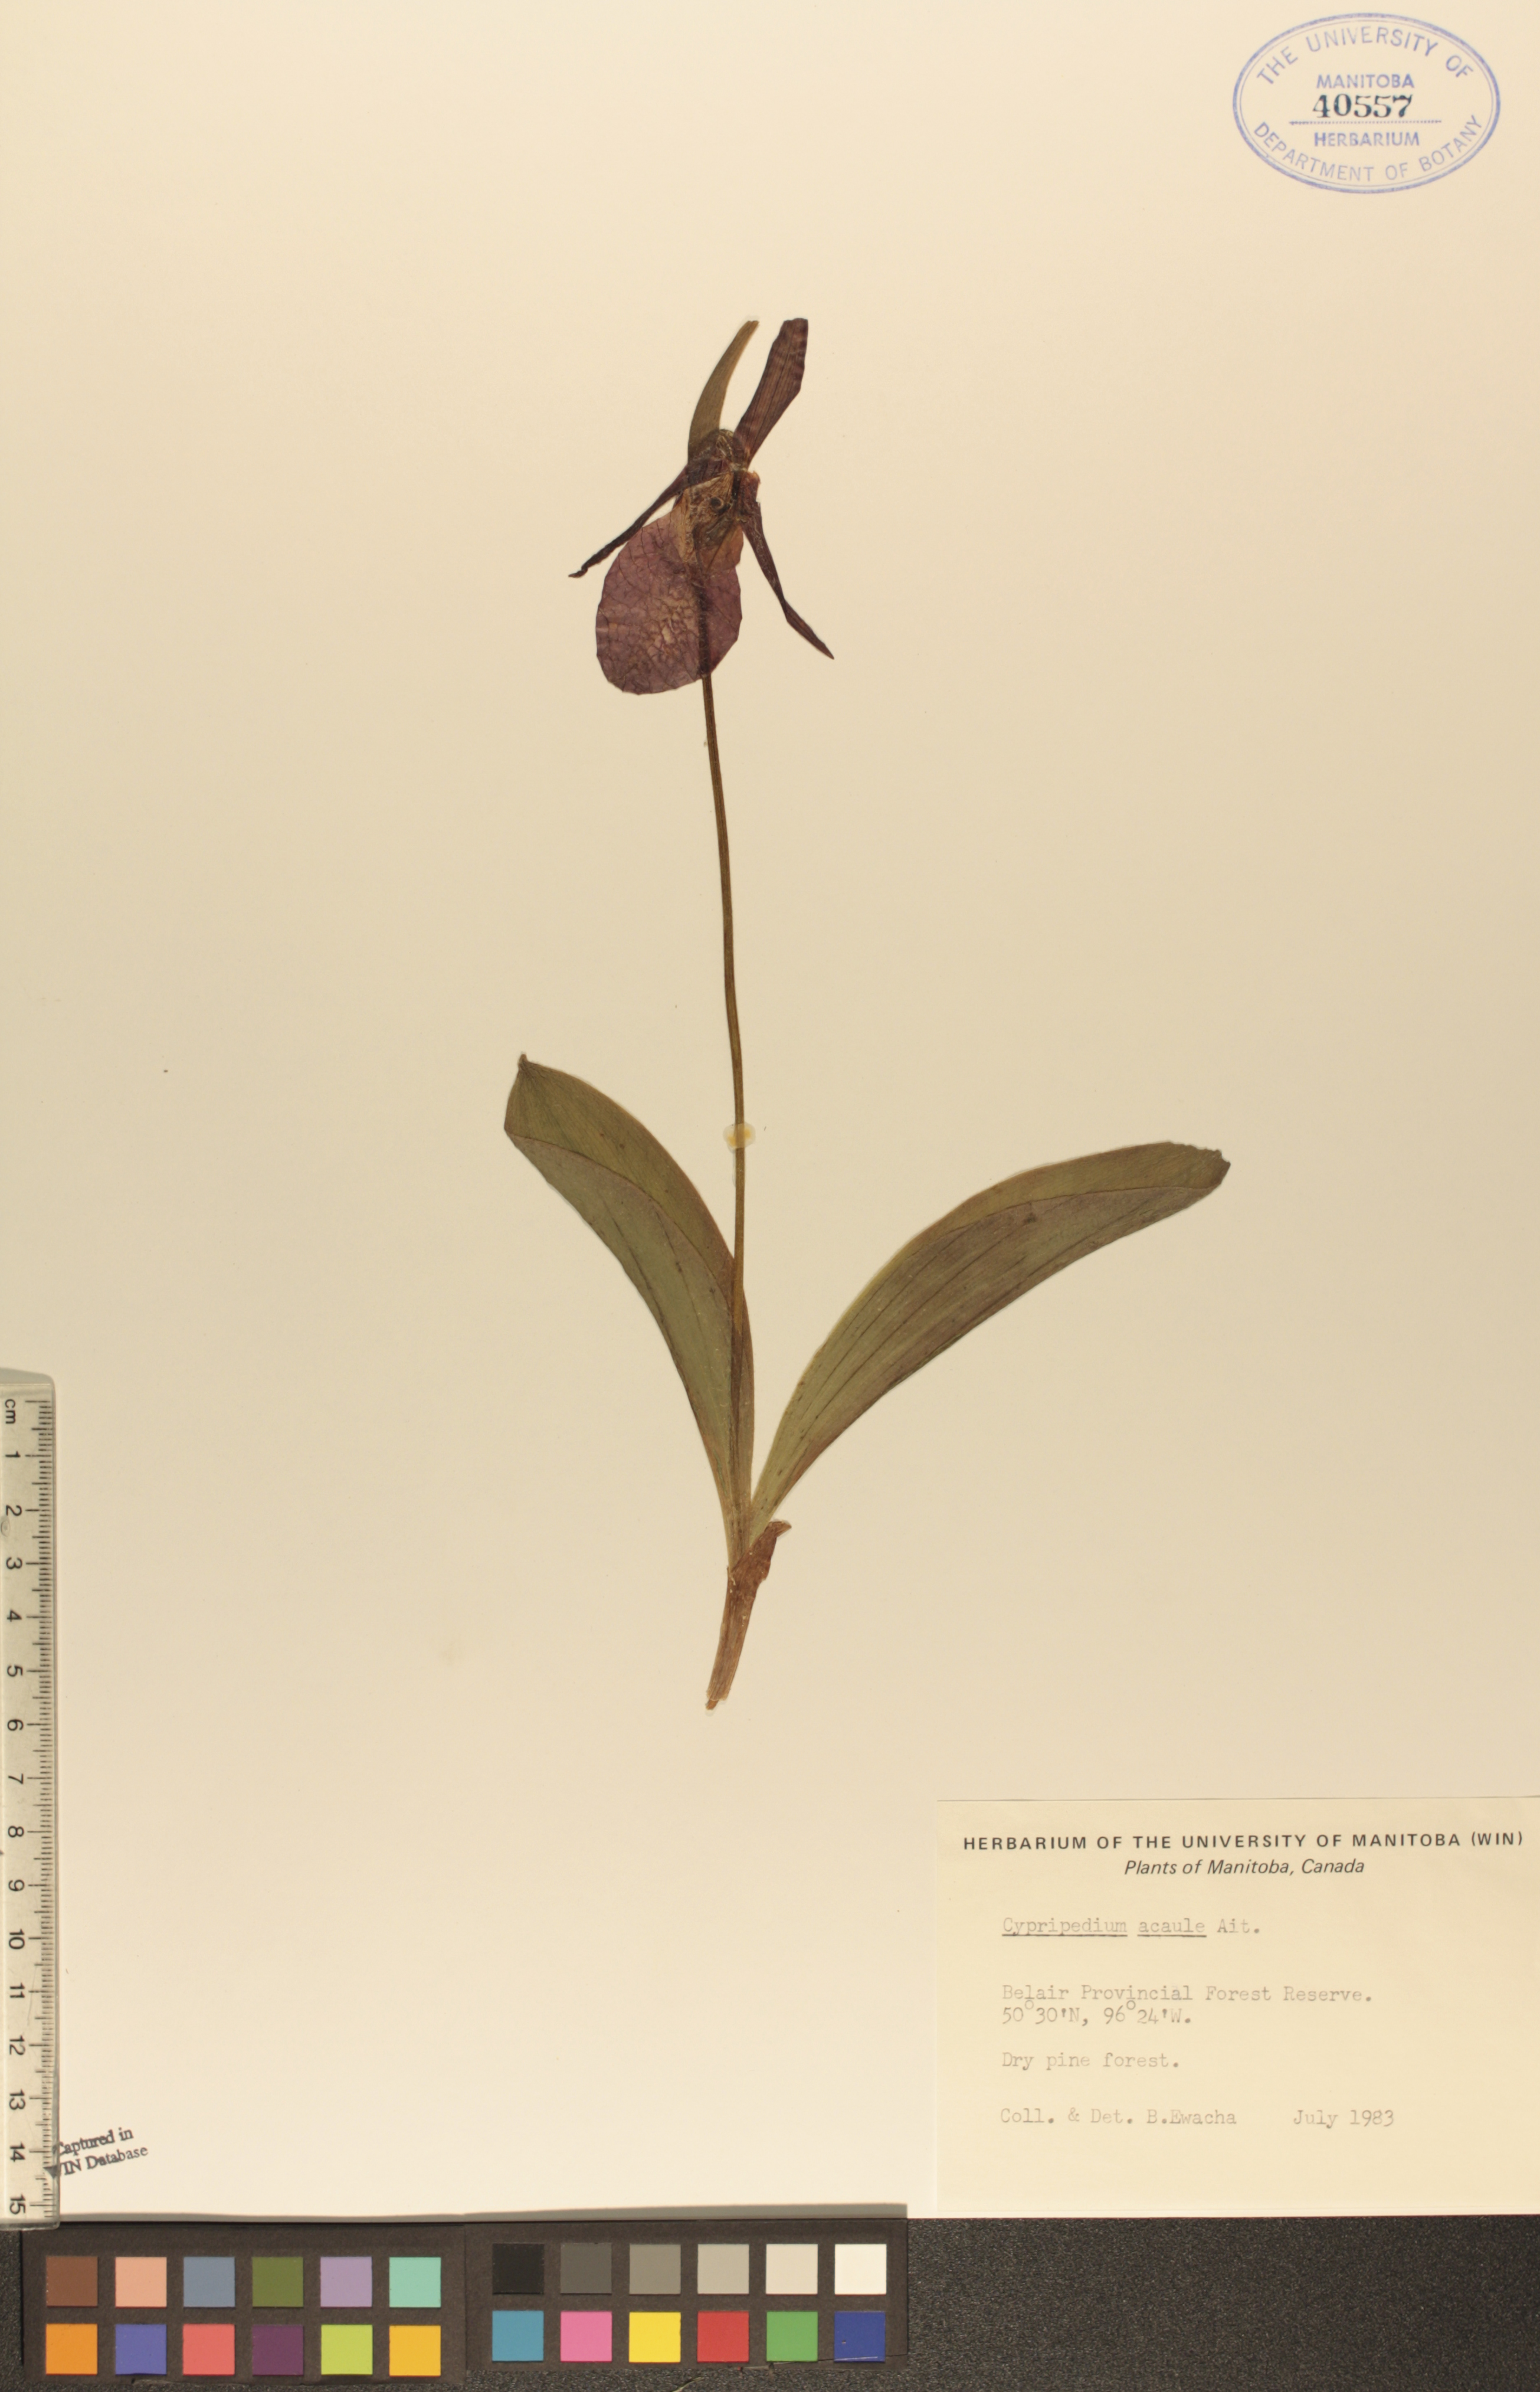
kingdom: Plantae
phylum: Tracheophyta
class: Liliopsida
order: Asparagales
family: Orchidaceae
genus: Cypripedium
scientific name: Cypripedium acaule
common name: Pink lady's-slipper
